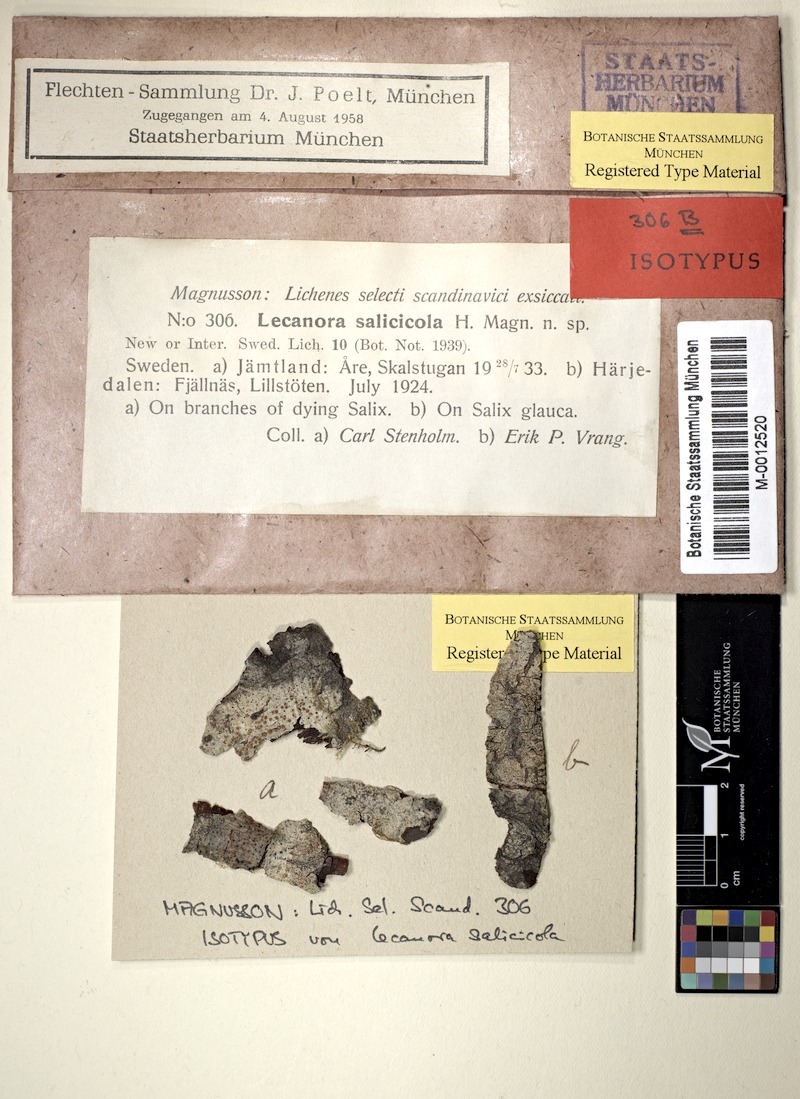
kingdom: Fungi
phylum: Ascomycota
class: Lecanoromycetes
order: Lecanorales
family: Lecanoraceae
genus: Lecanora
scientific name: Lecanora salicicola
